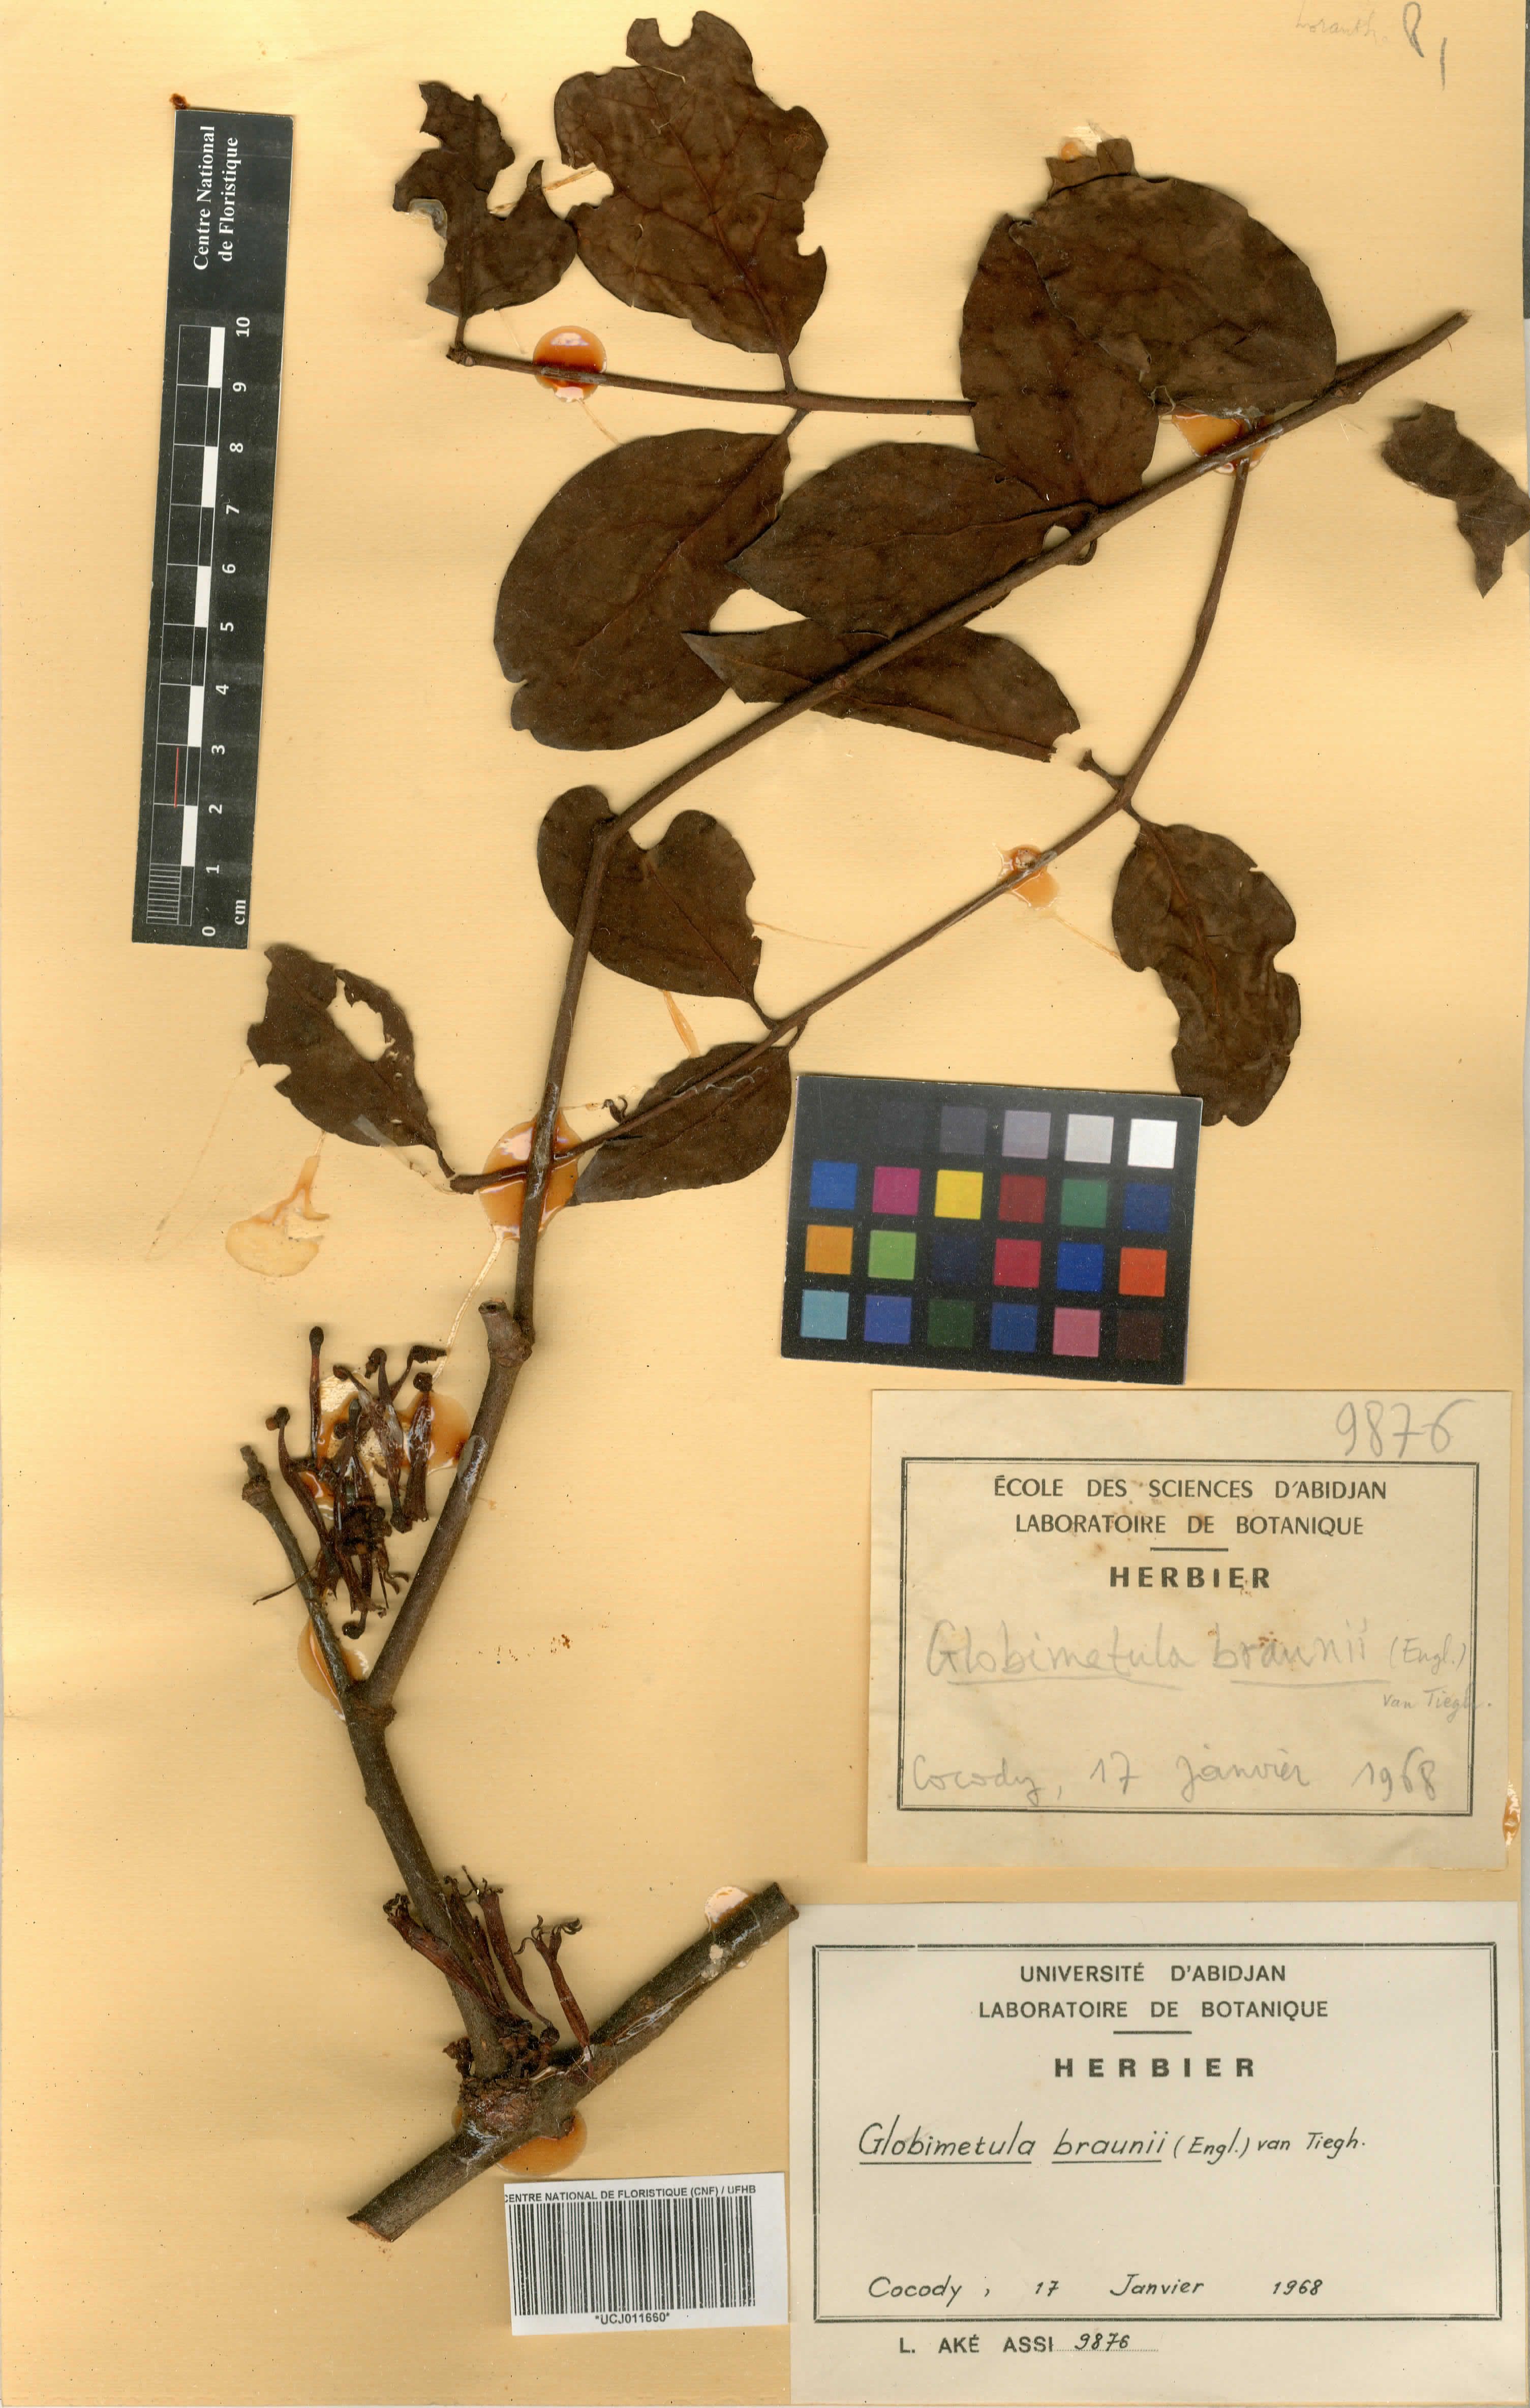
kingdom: Plantae
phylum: Tracheophyta
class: Magnoliopsida
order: Santalales
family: Loranthaceae
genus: Globimetula
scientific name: Globimetula braunii
